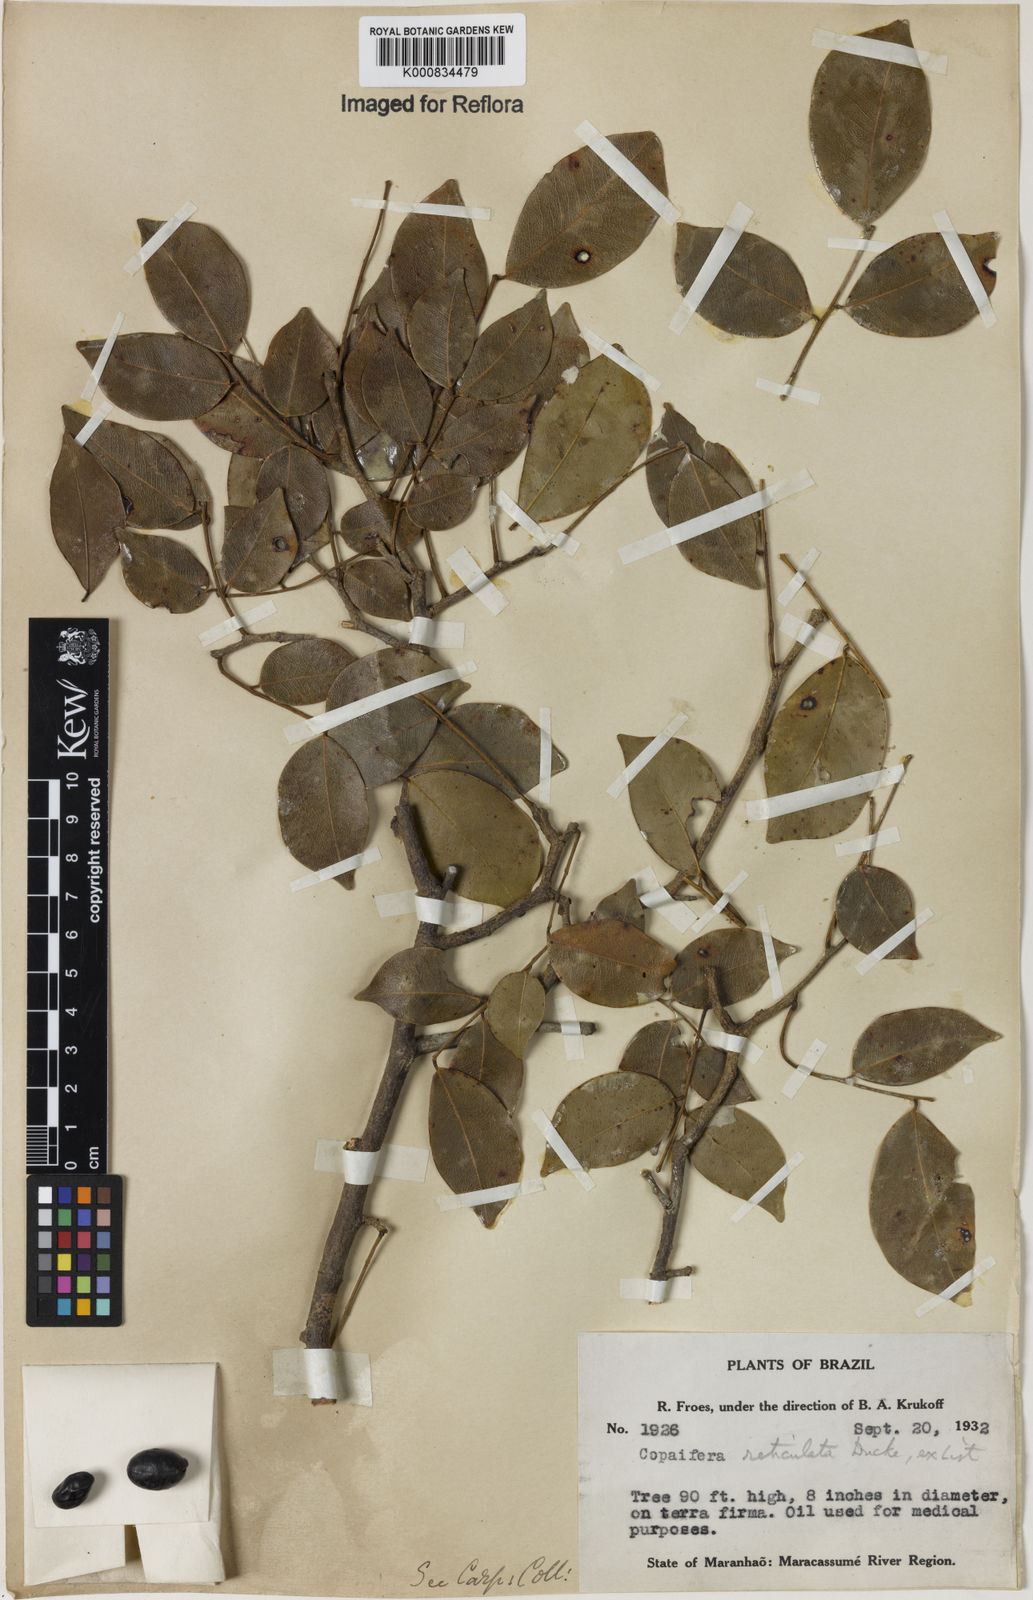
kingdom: Plantae
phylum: Tracheophyta
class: Magnoliopsida
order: Fabales
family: Fabaceae
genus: Copaifera
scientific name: Copaifera copaibo
